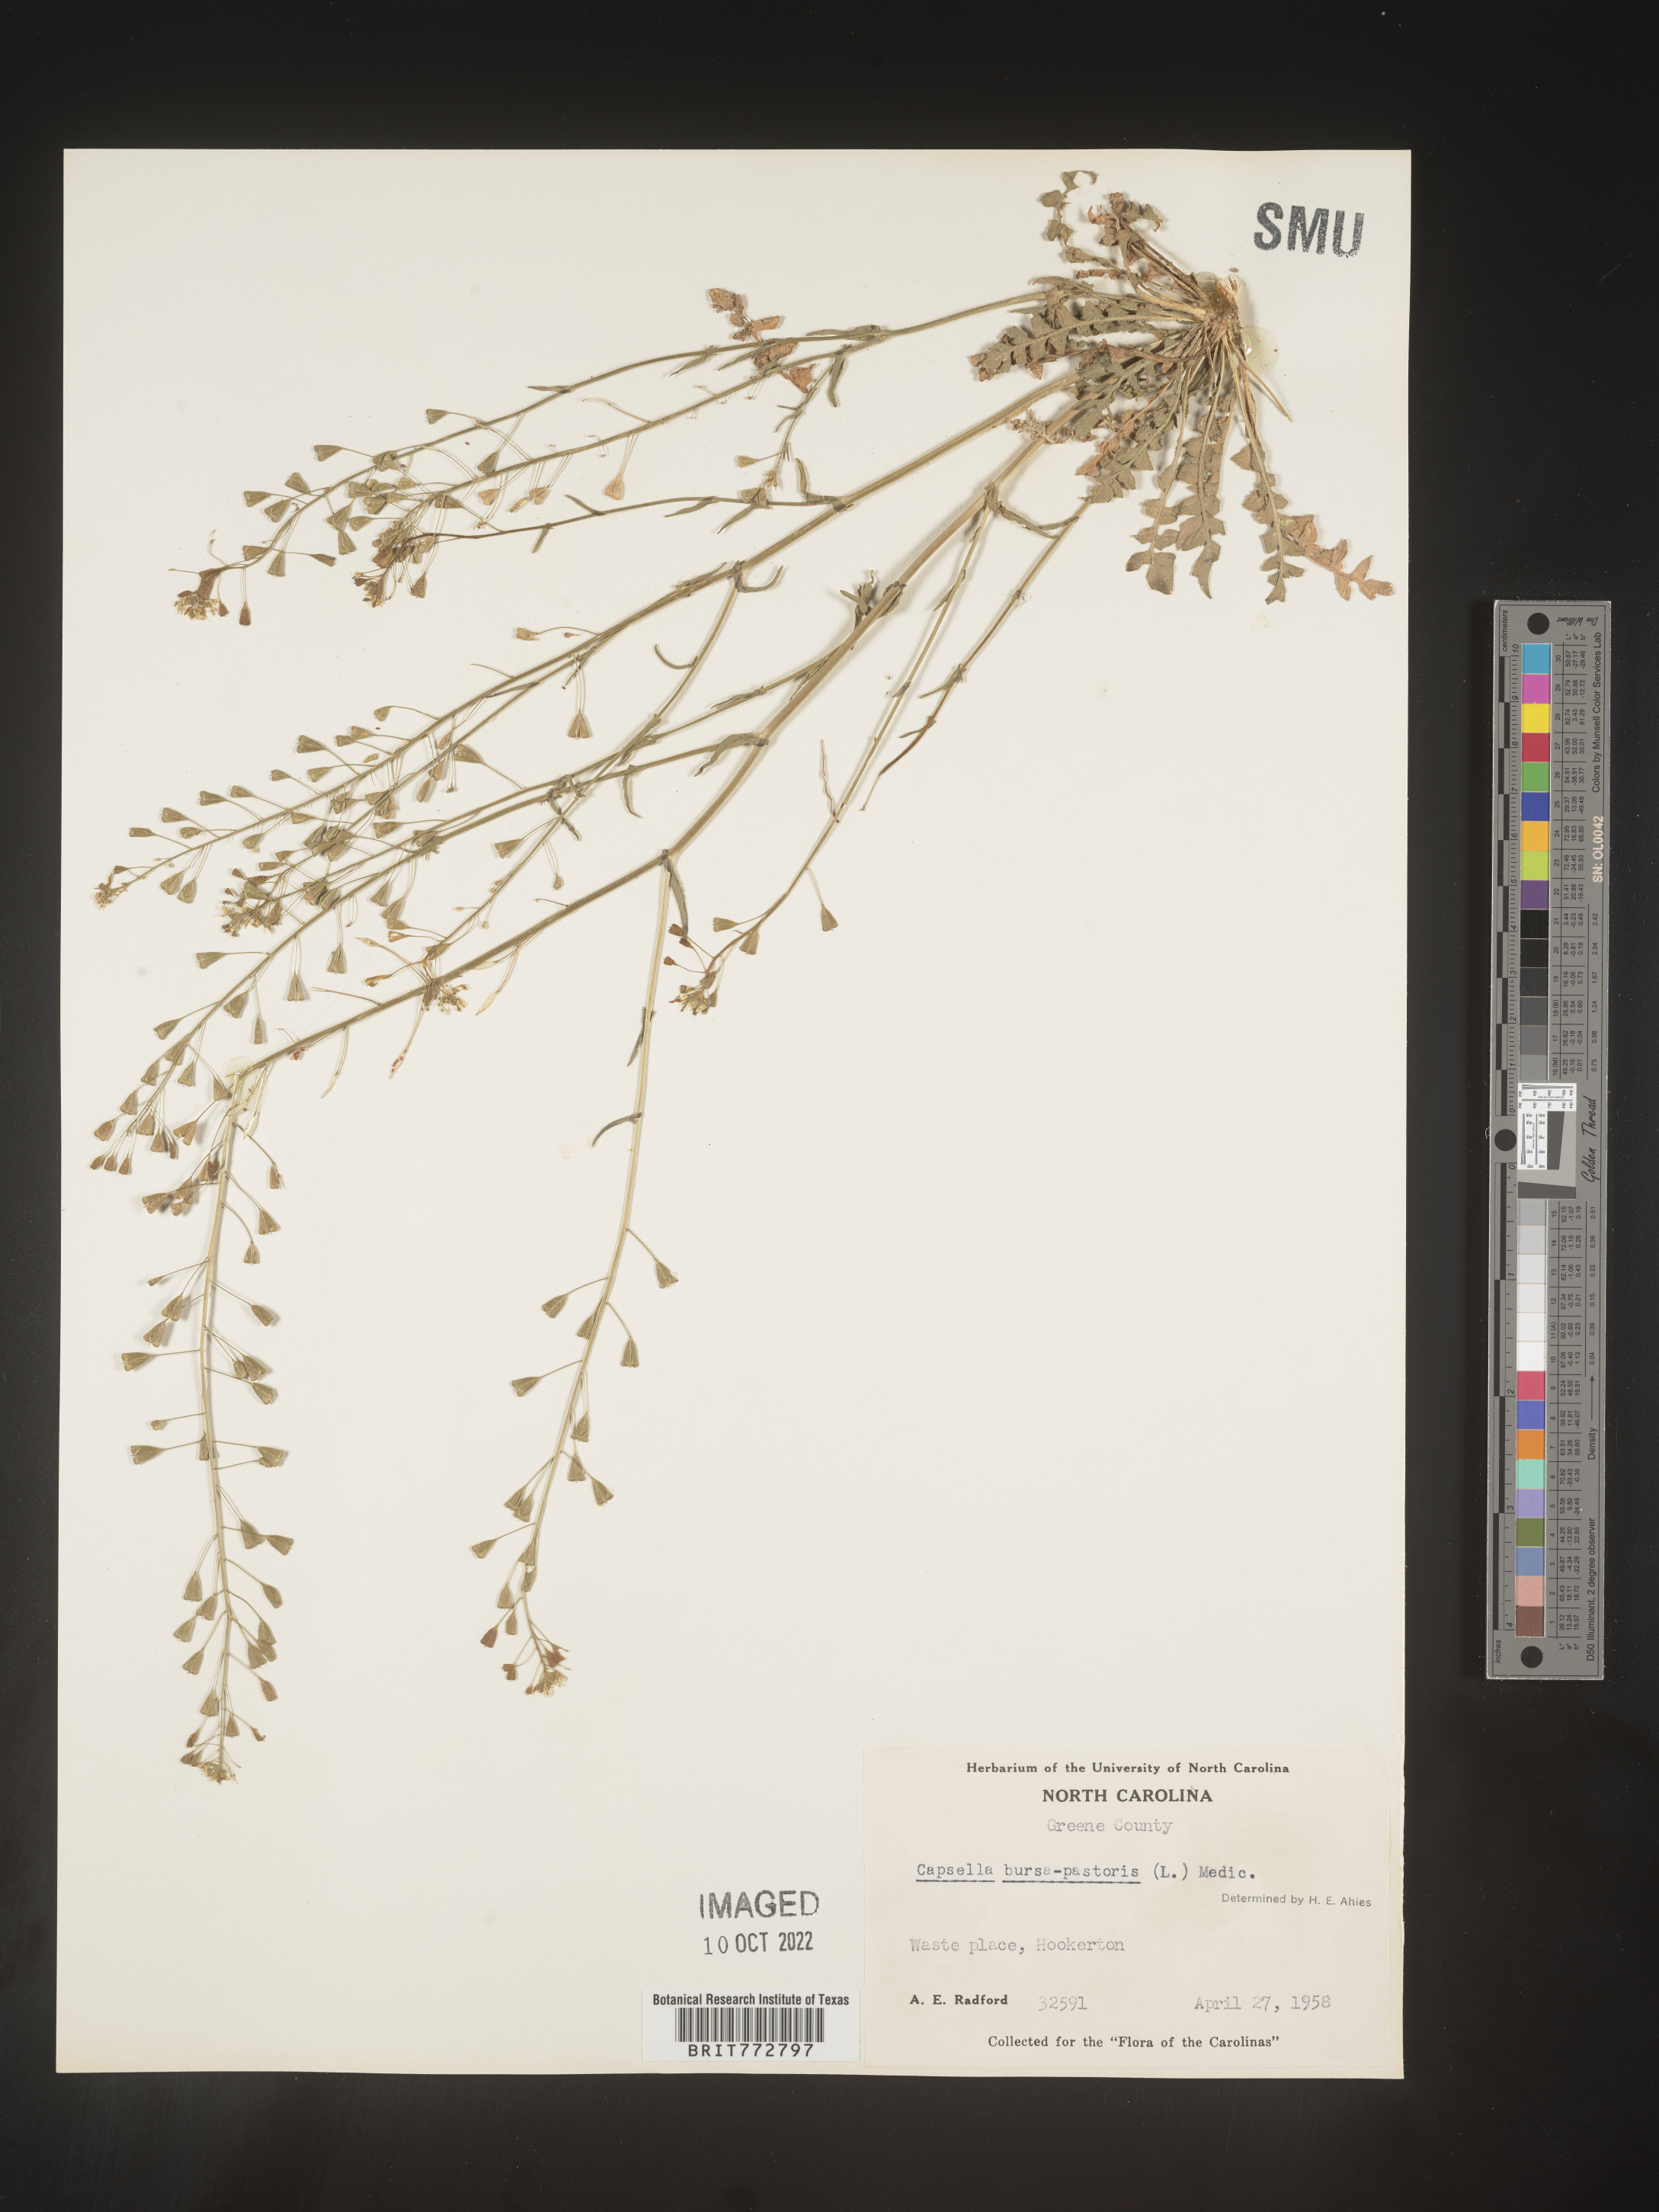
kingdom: Plantae
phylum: Tracheophyta
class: Magnoliopsida
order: Brassicales
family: Brassicaceae
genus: Capsella
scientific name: Capsella bursa-pastoris
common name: Shepherd's purse
